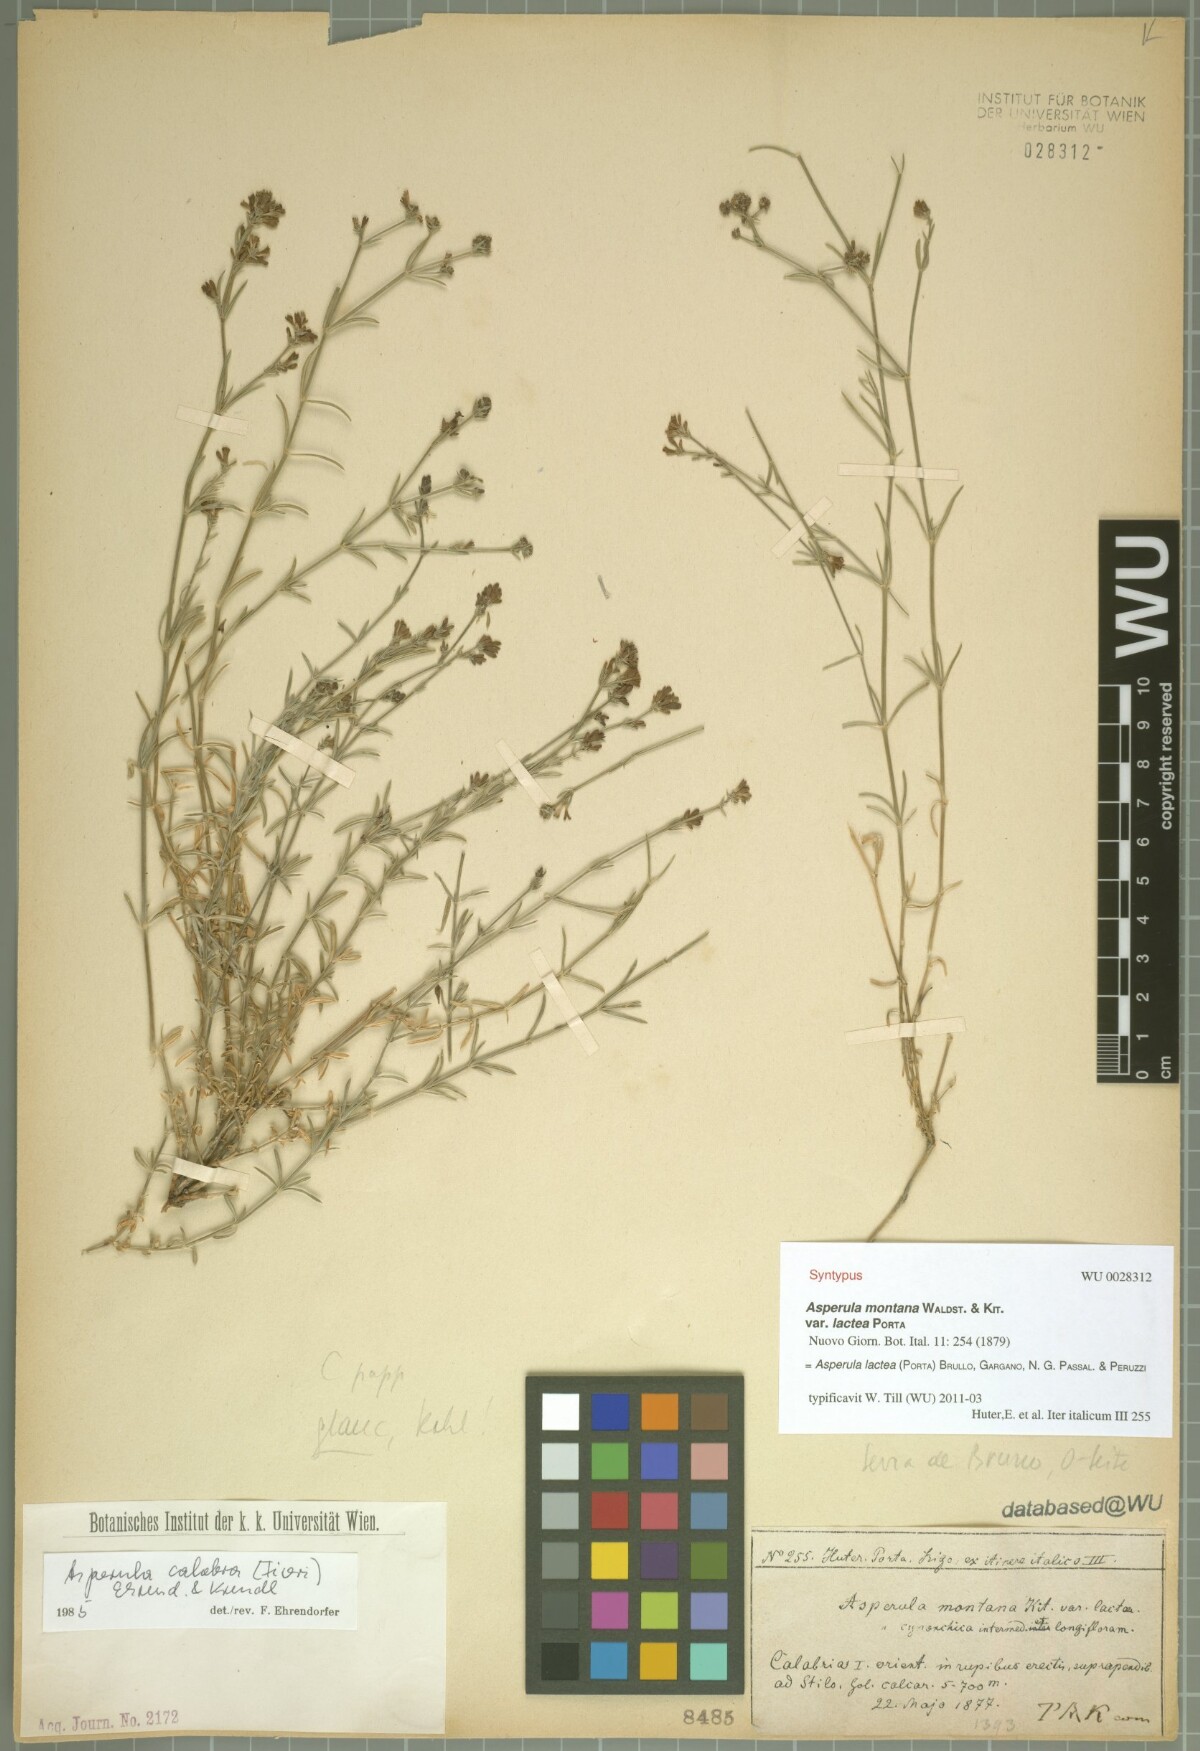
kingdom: Plantae
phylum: Tracheophyta
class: Magnoliopsida
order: Gentianales
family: Rubiaceae
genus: Cynanchica
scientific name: Cynanchica lactea
